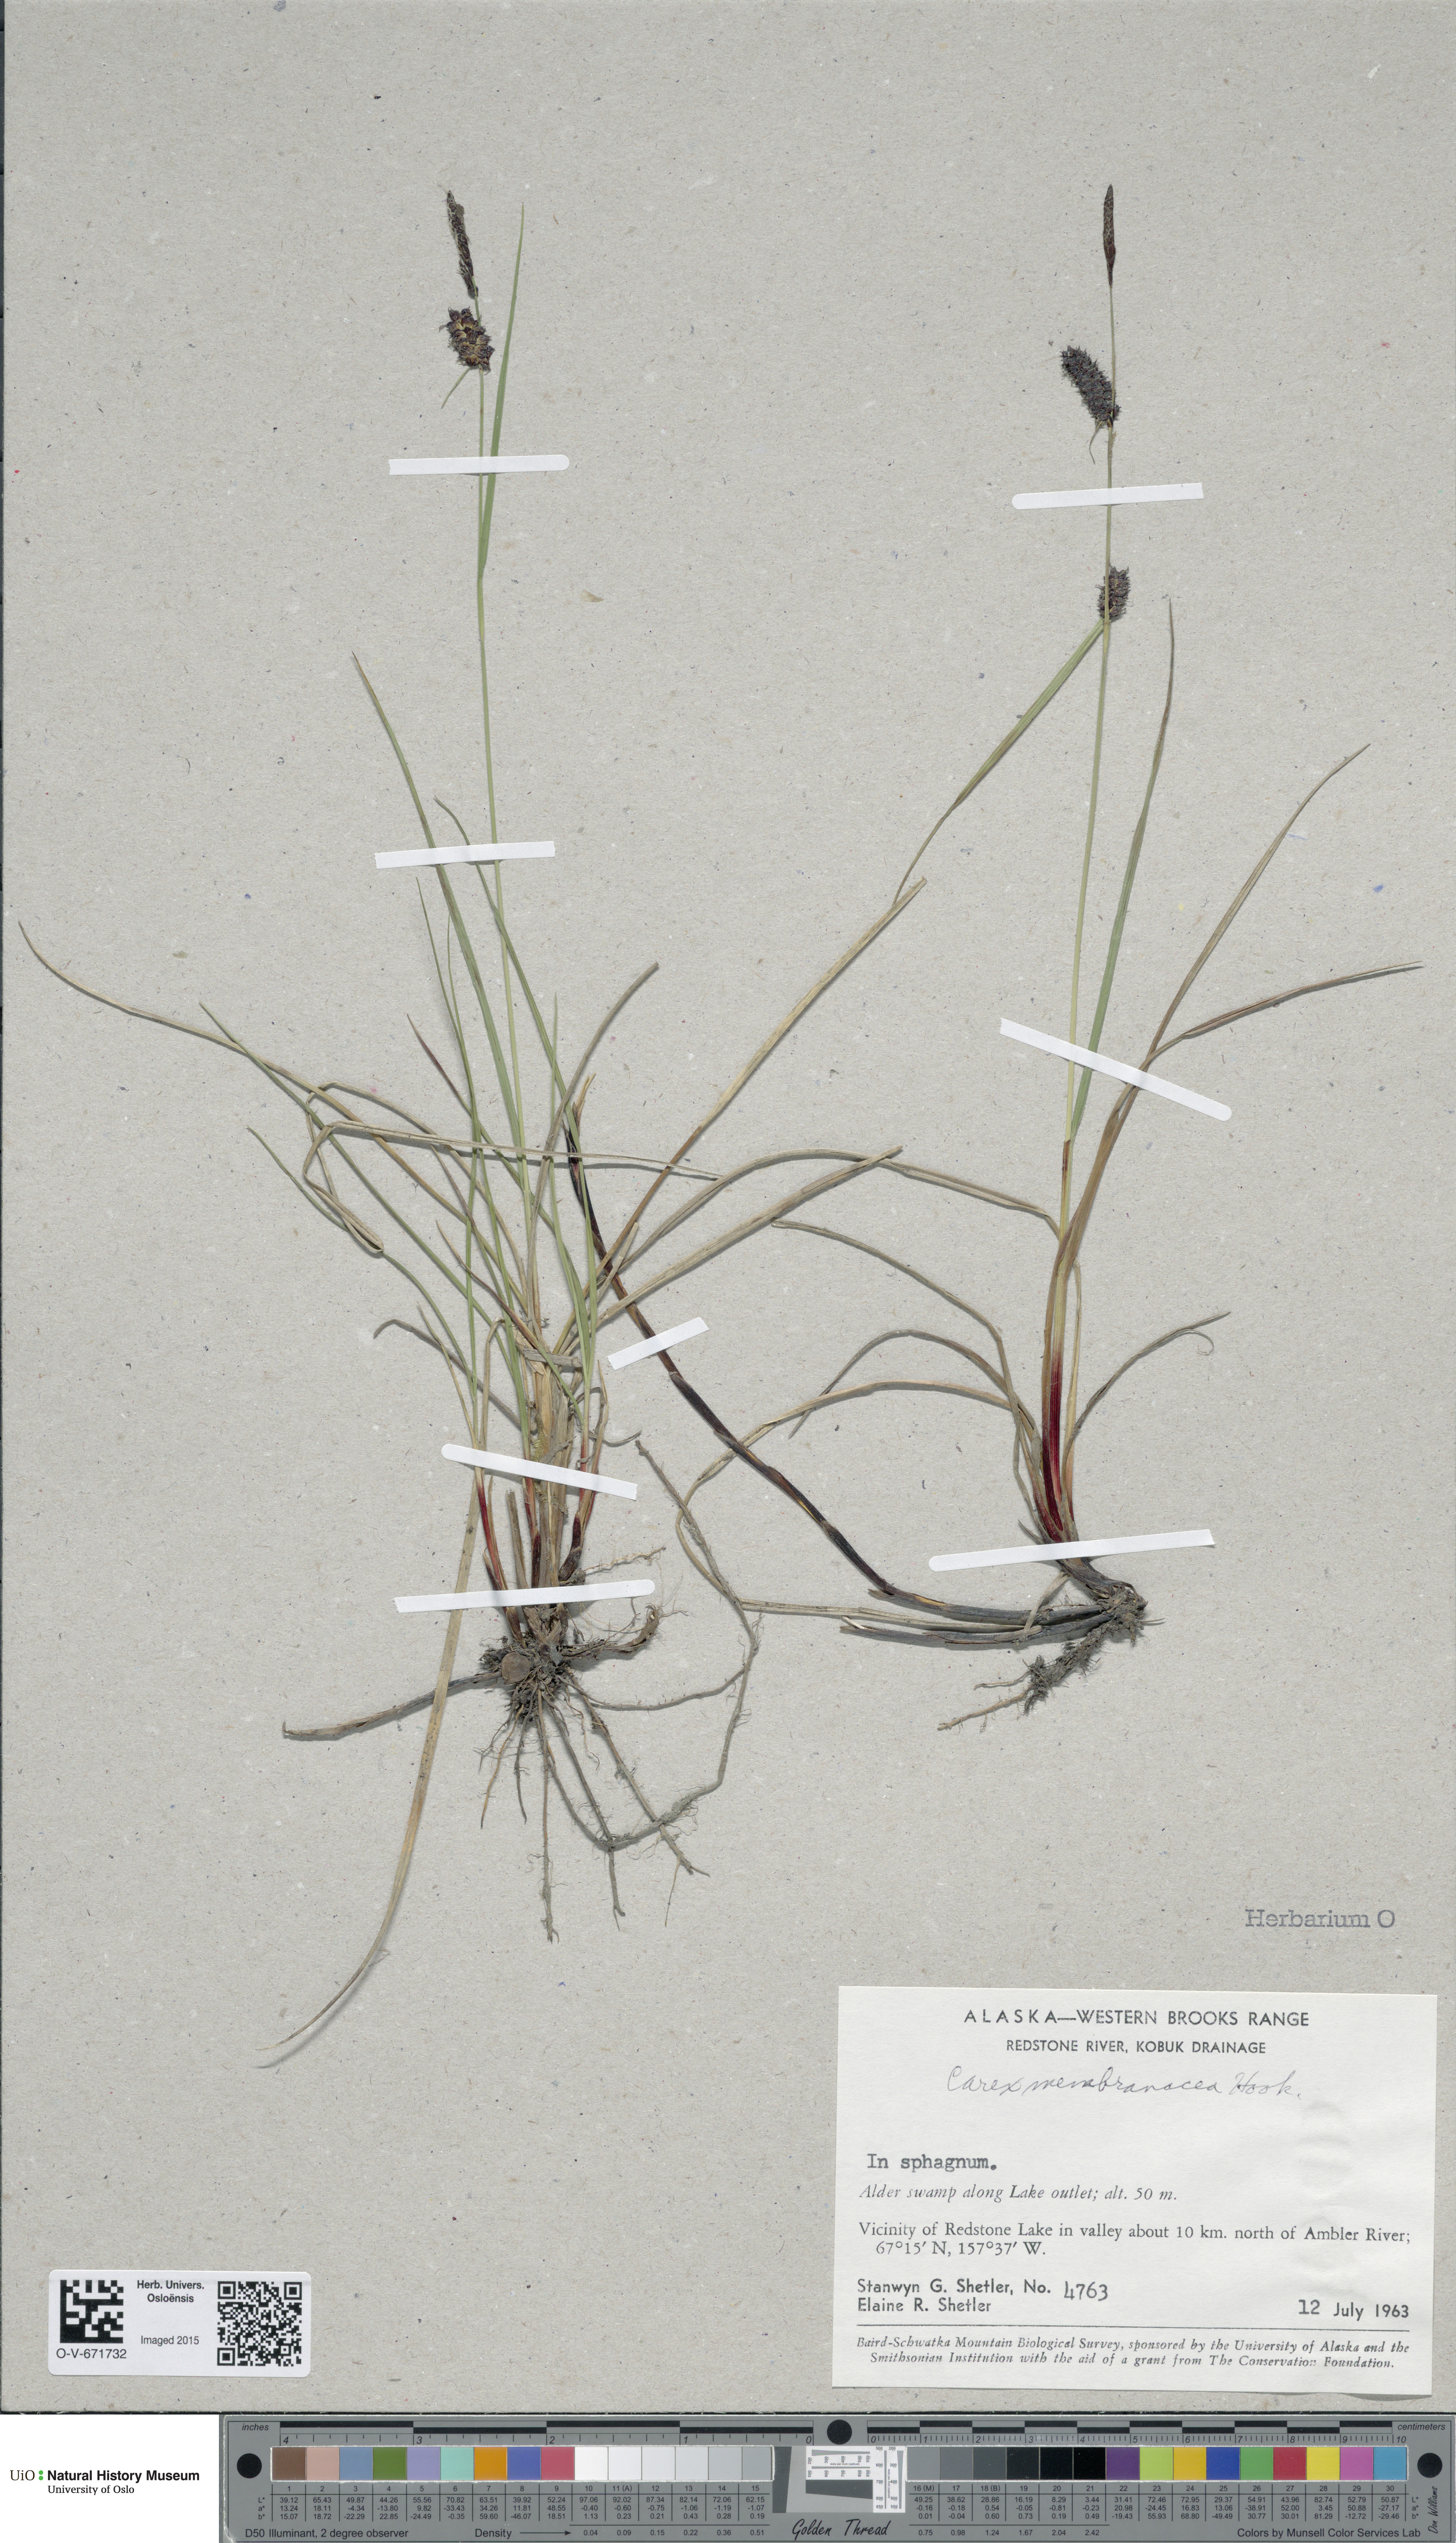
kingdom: Plantae
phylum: Tracheophyta
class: Liliopsida
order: Poales
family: Cyperaceae
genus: Carex
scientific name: Carex membranacea
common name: Fragile sedge
